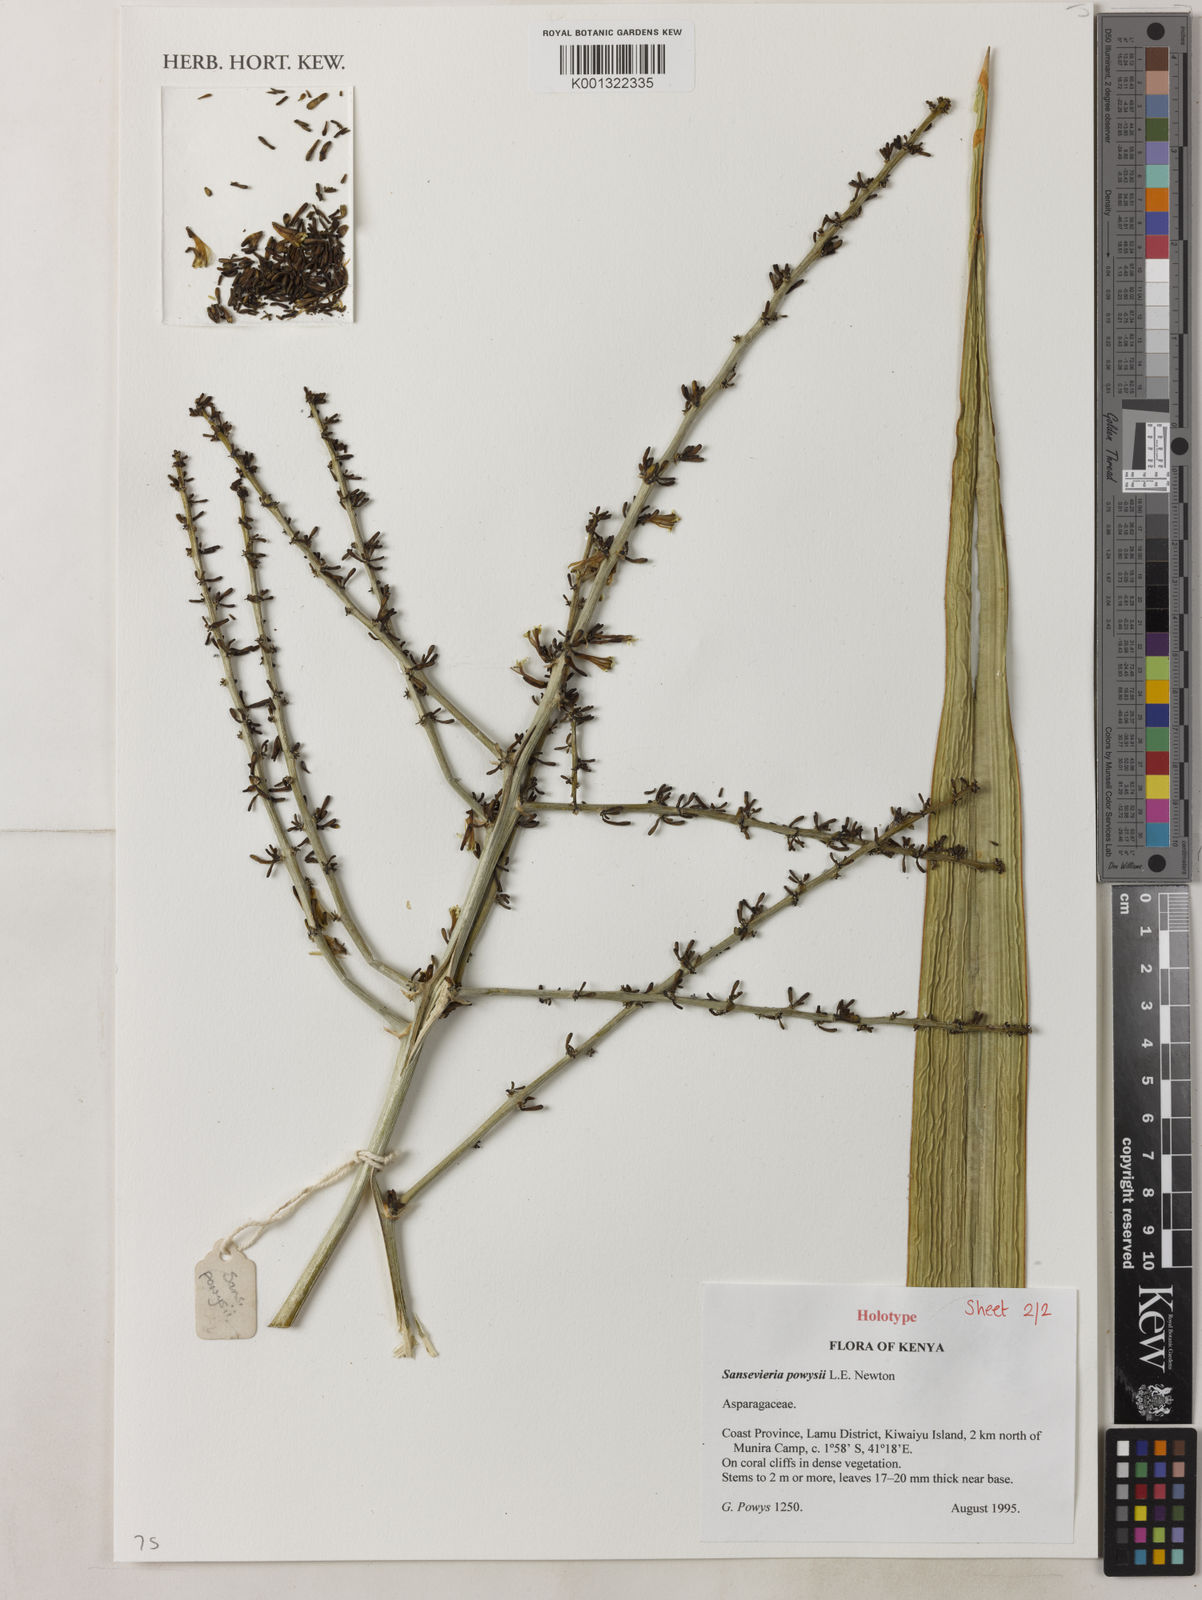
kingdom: Plantae
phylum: Tracheophyta
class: Liliopsida
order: Asparagales
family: Asparagaceae
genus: Dracaena
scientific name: Dracaena powysii
